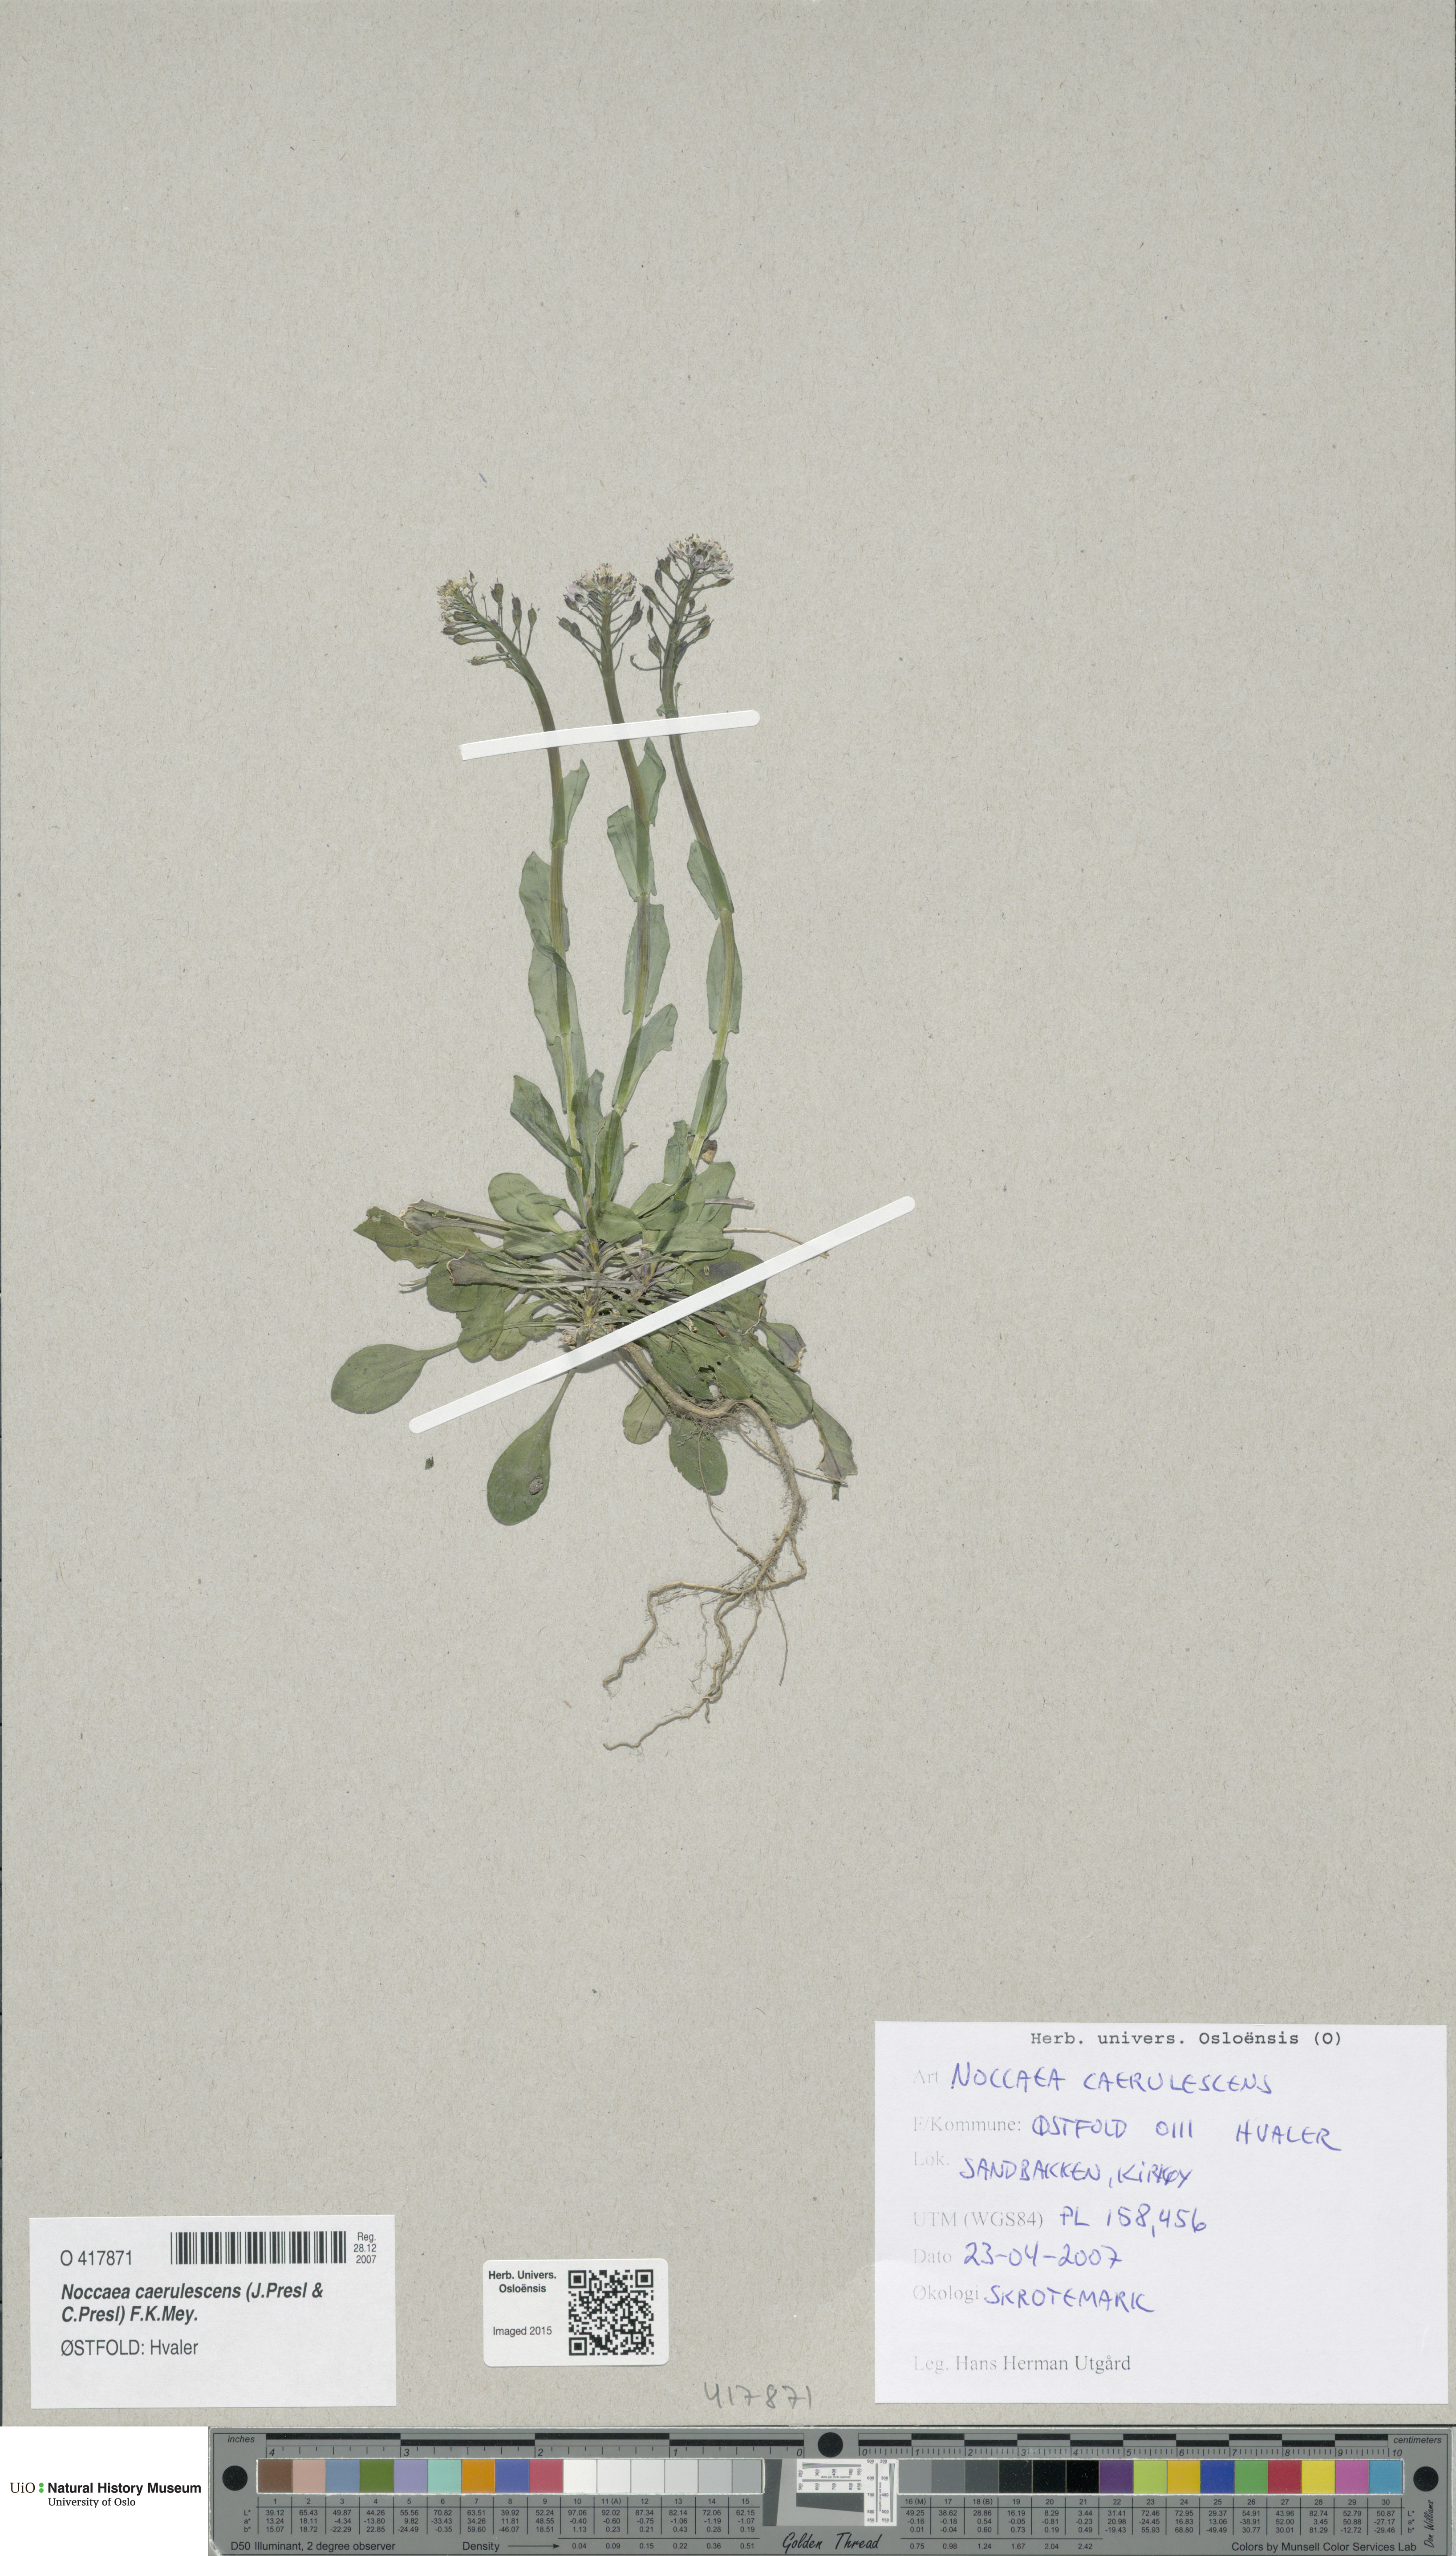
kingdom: Plantae
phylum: Tracheophyta
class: Magnoliopsida
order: Brassicales
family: Brassicaceae
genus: Noccaea
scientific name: Noccaea caerulescens
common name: Alpine pennycress
